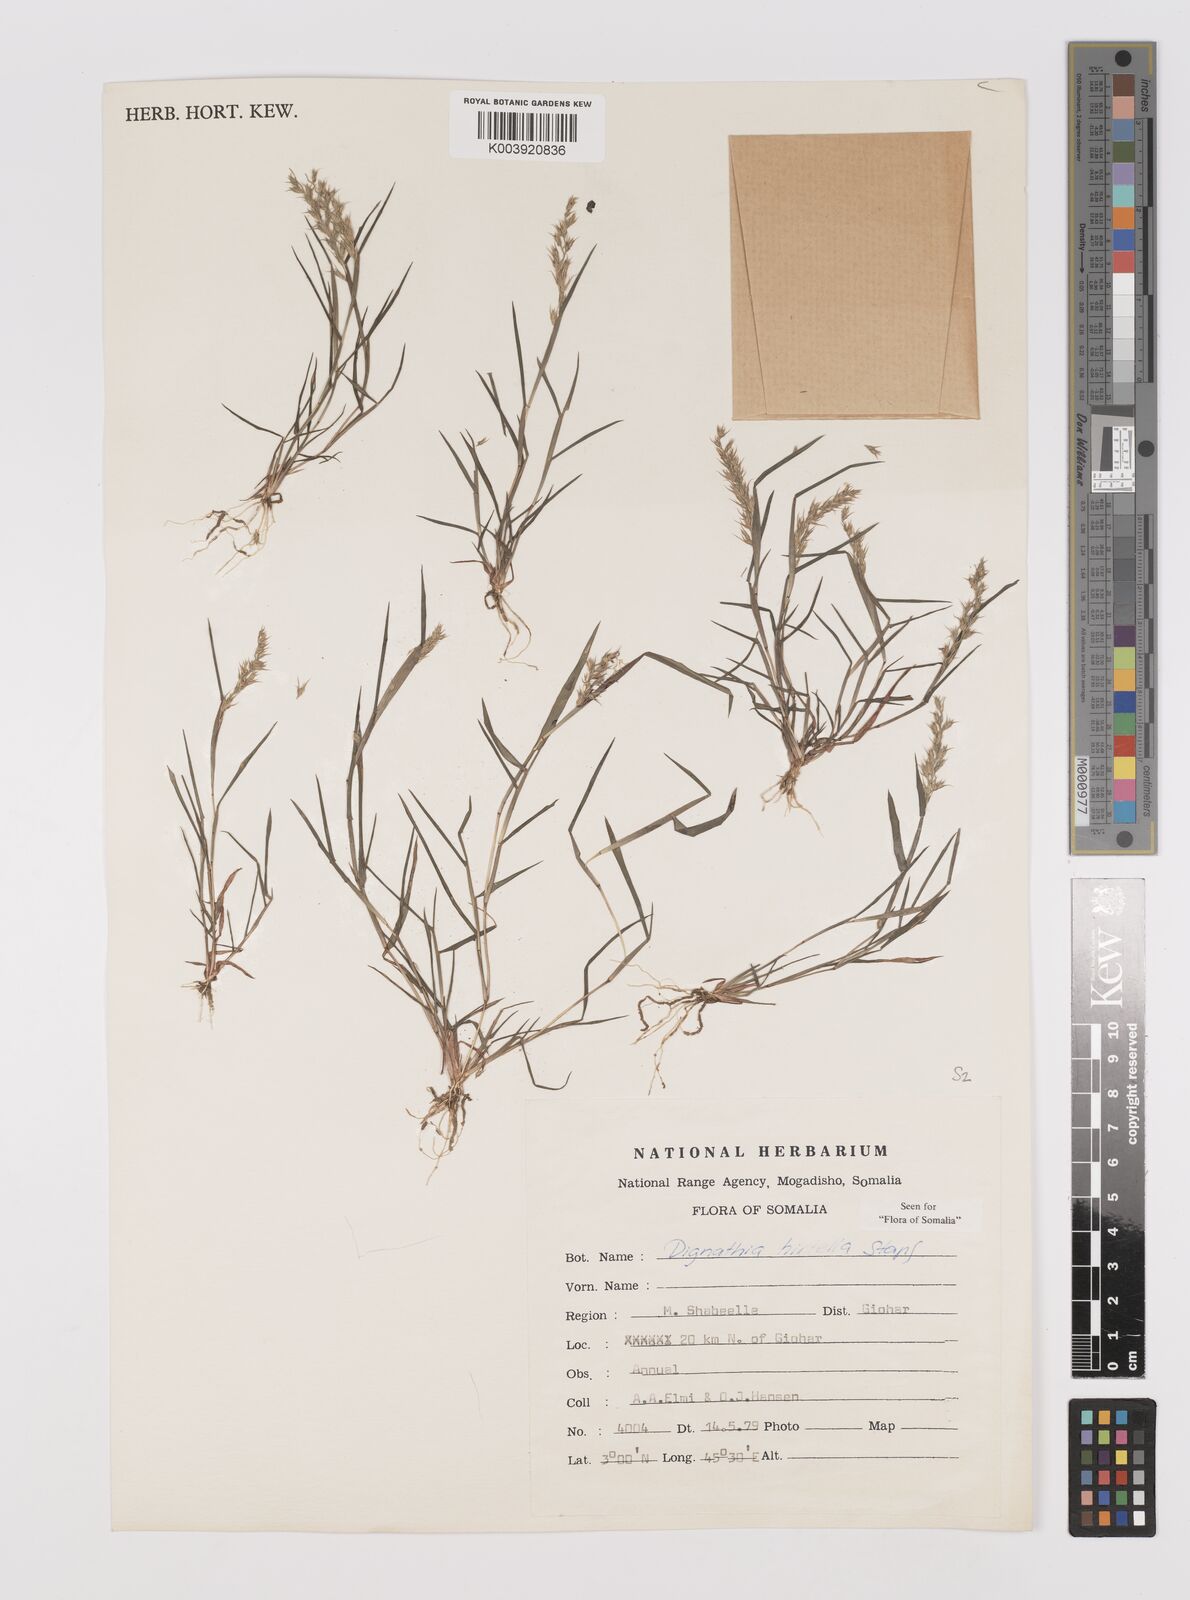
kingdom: Plantae
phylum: Tracheophyta
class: Liliopsida
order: Poales
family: Poaceae
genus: Dignathia
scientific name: Dignathia hirtella
